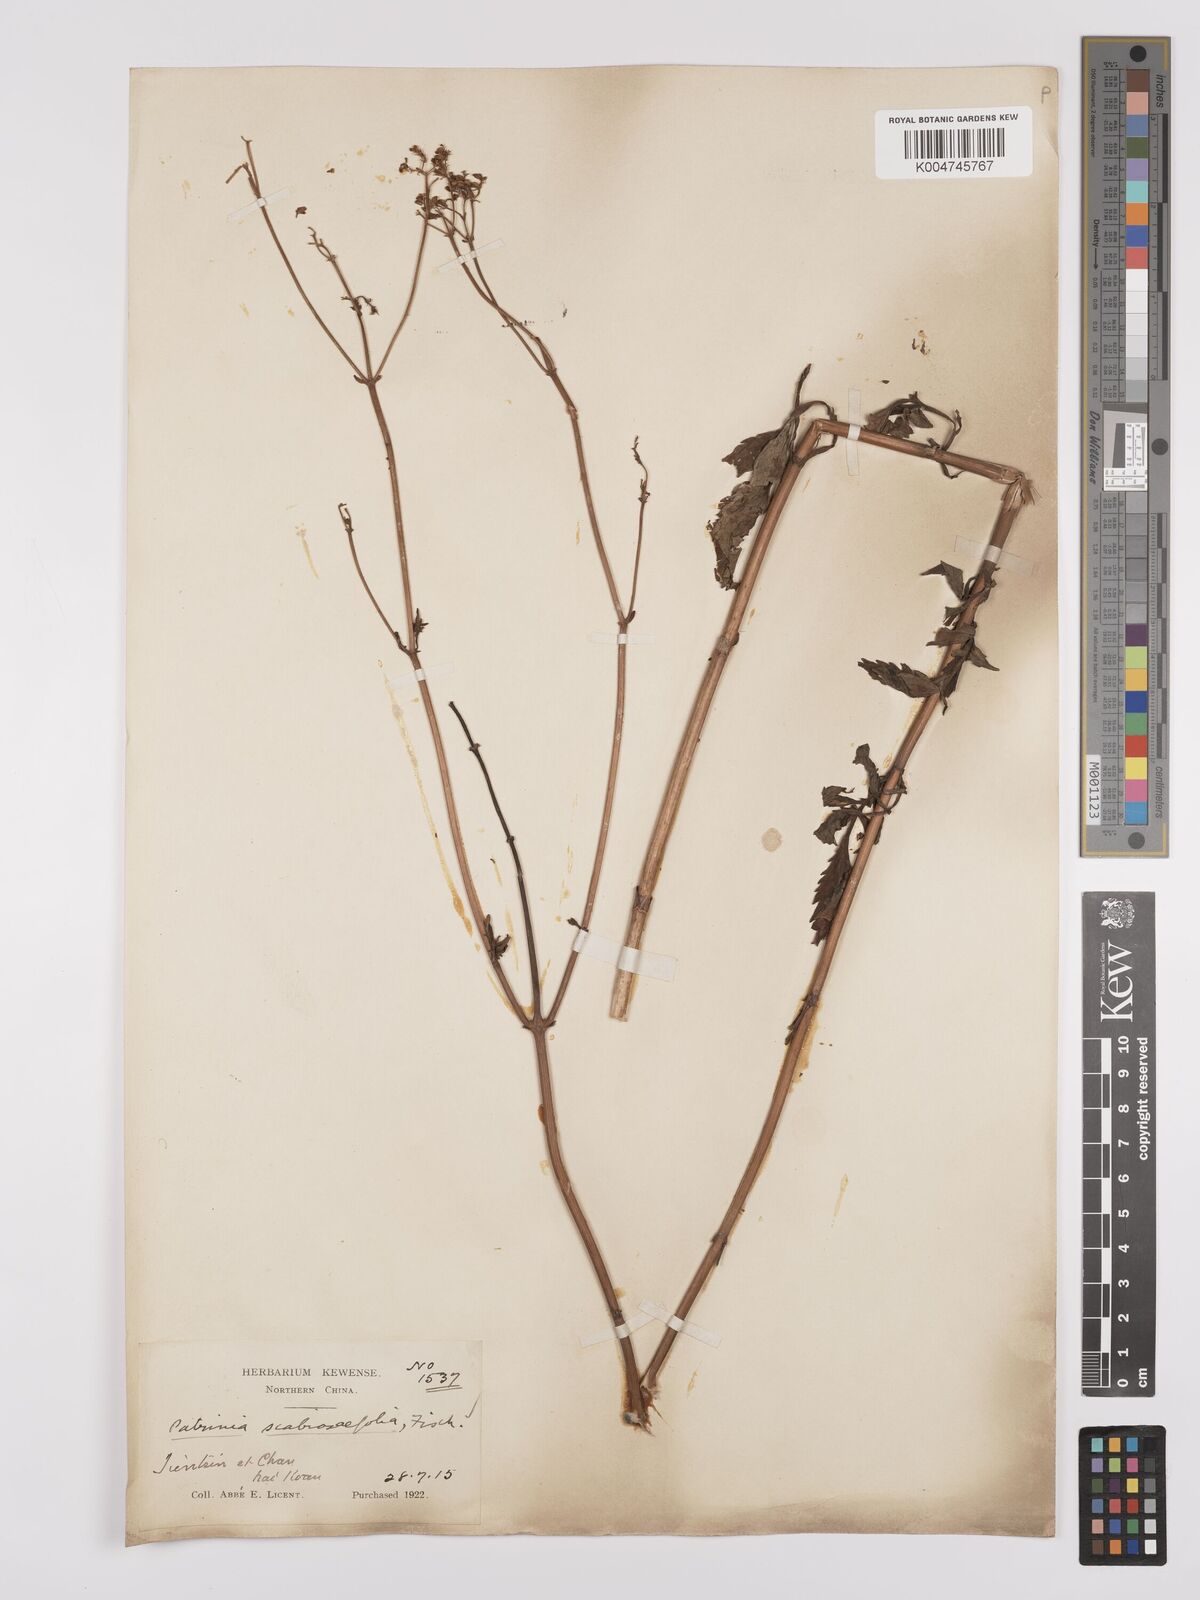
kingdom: Plantae
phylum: Tracheophyta
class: Magnoliopsida
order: Dipsacales
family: Caprifoliaceae
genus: Patrinia
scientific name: Patrinia
